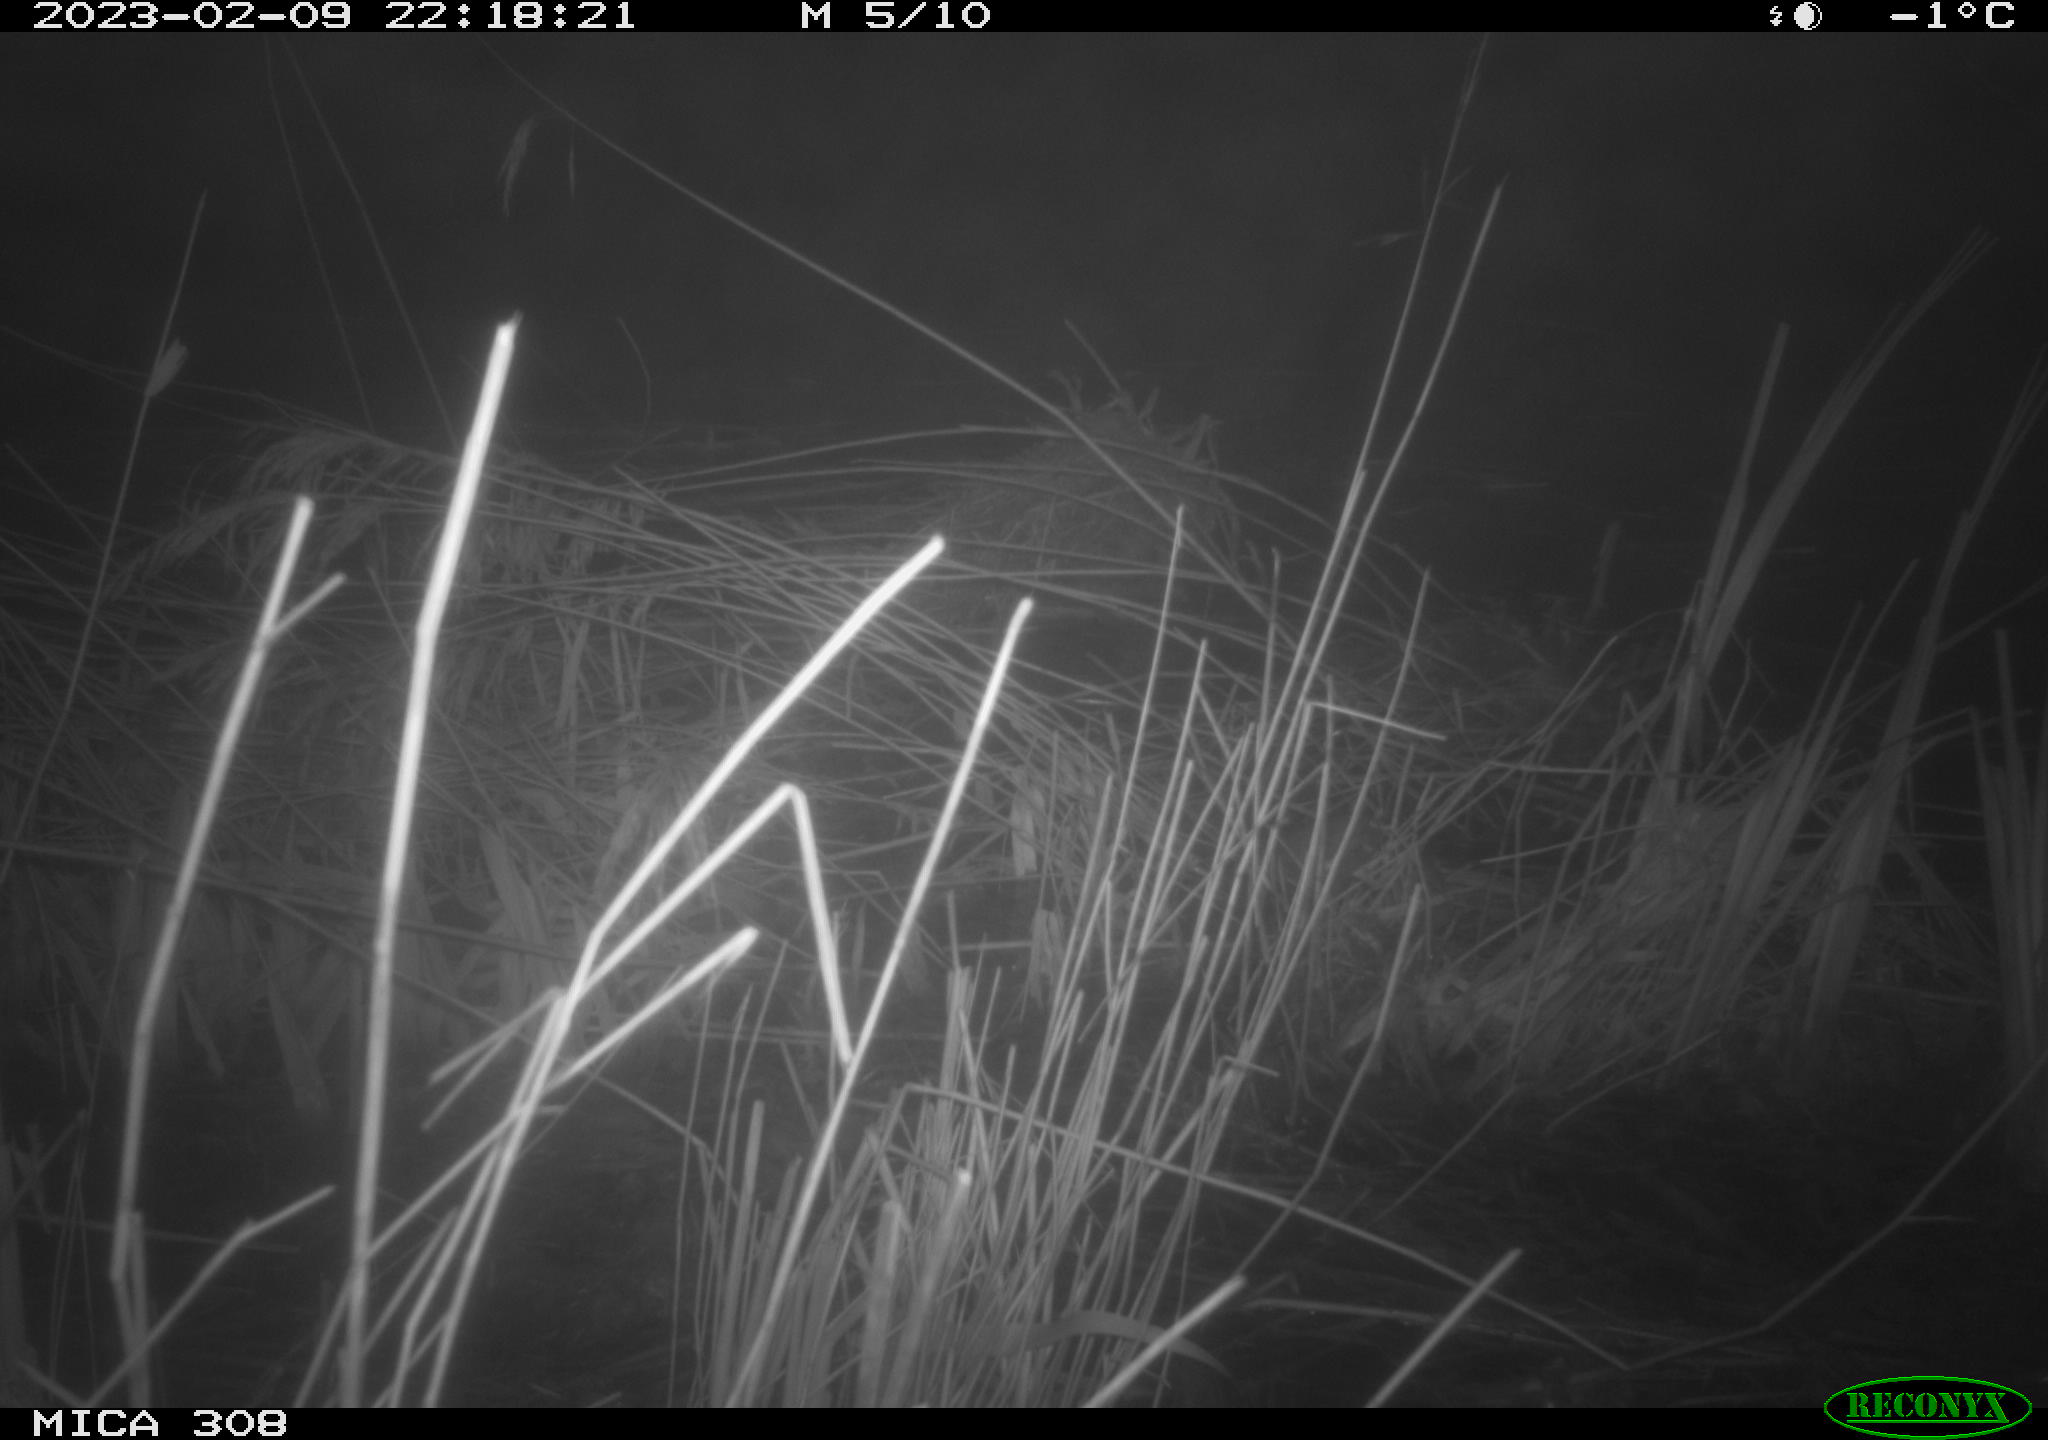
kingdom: Animalia
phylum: Chordata
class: Mammalia
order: Rodentia
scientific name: Rodentia
